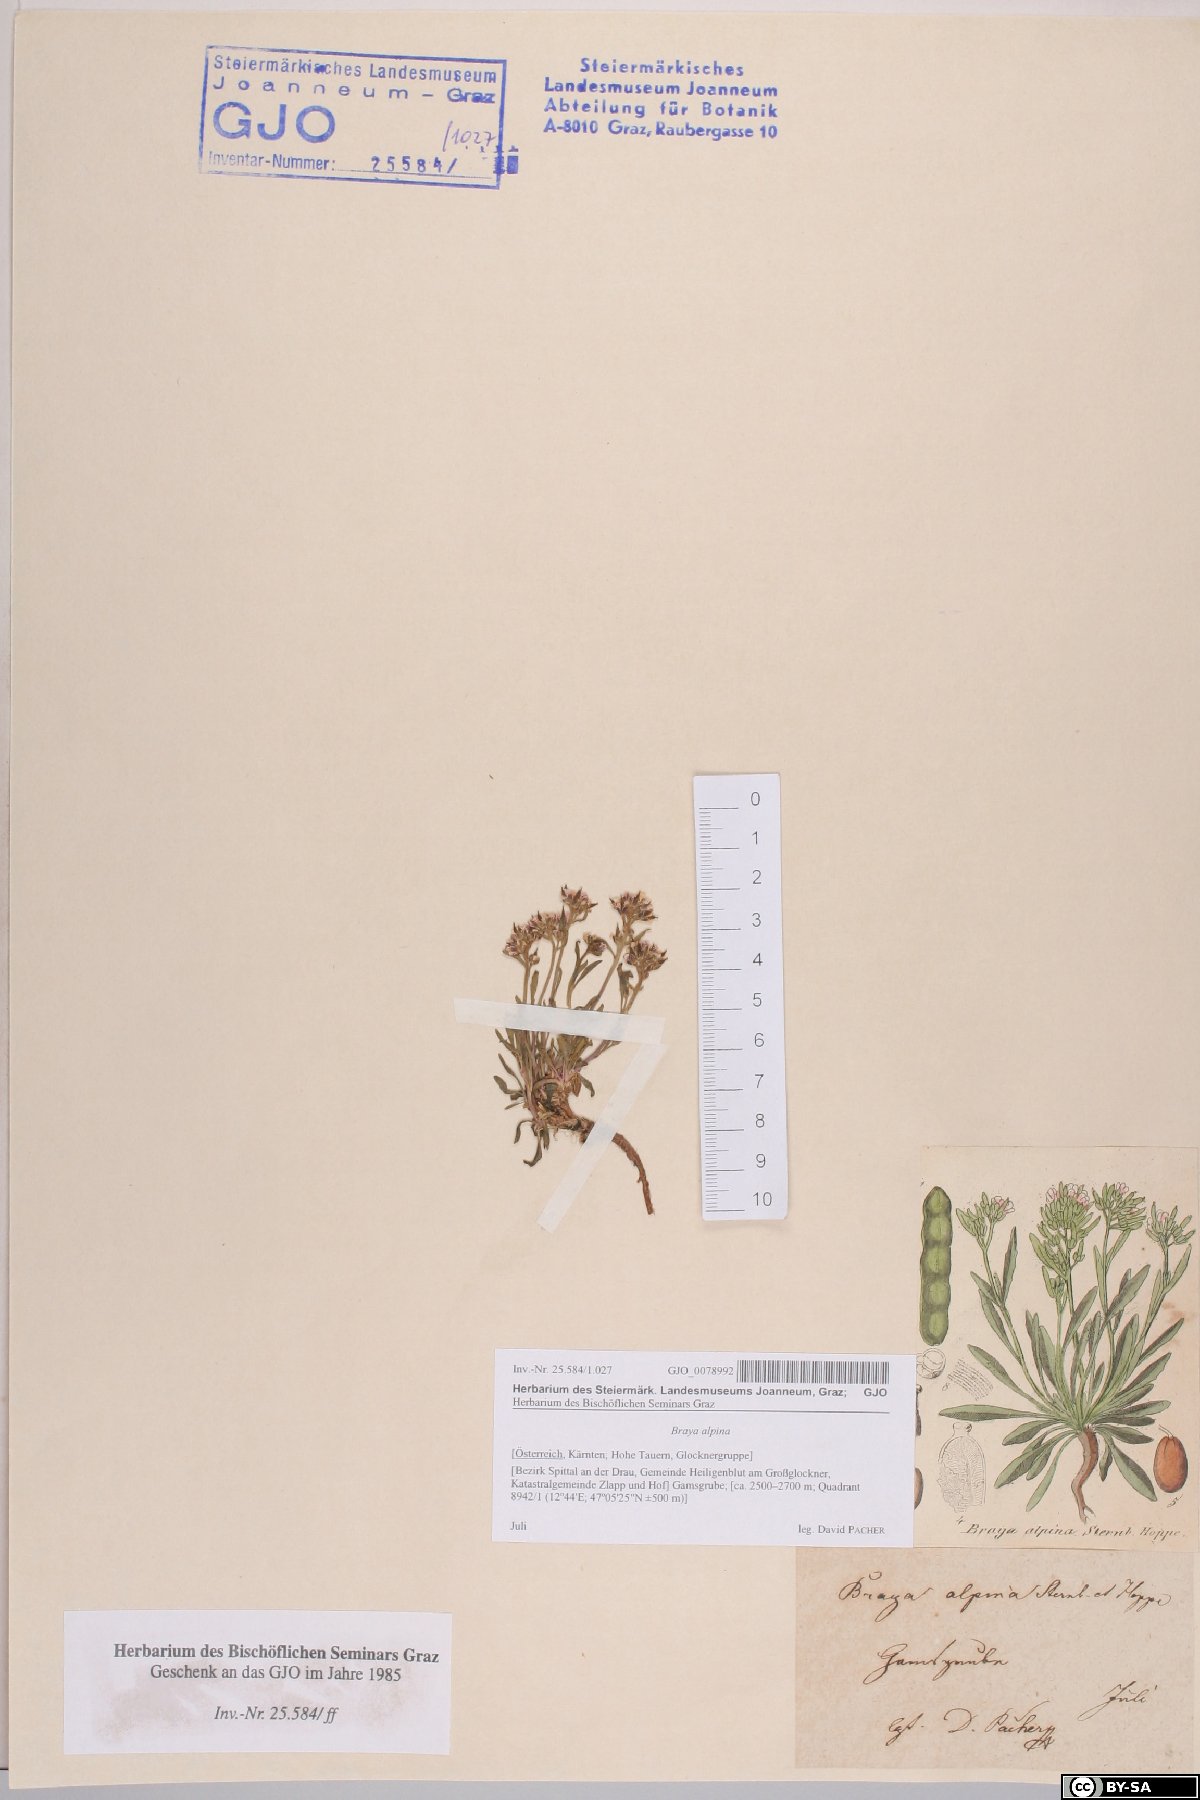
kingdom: Plantae
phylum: Tracheophyta
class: Magnoliopsida
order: Brassicales
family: Brassicaceae
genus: Braya
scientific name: Braya alpina
